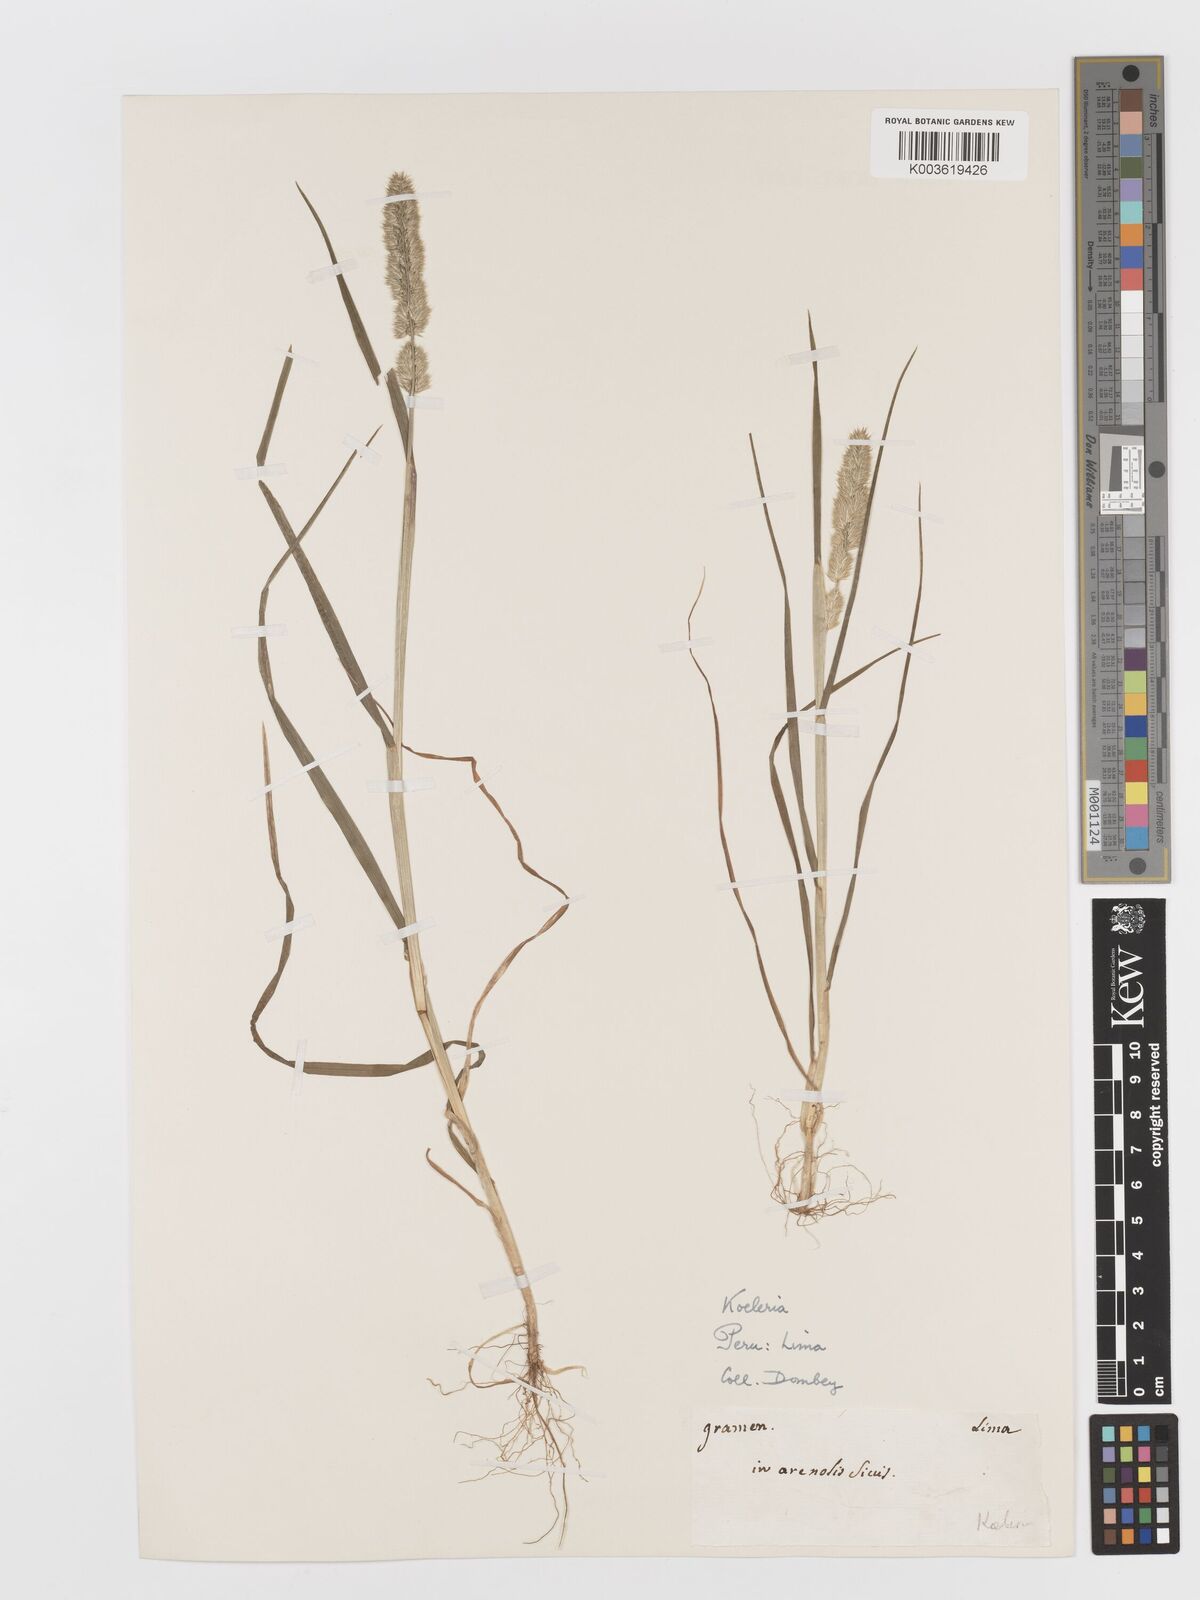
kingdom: Plantae
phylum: Tracheophyta
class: Liliopsida
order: Poales
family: Poaceae
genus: Rostraria
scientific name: Rostraria trachyantha
